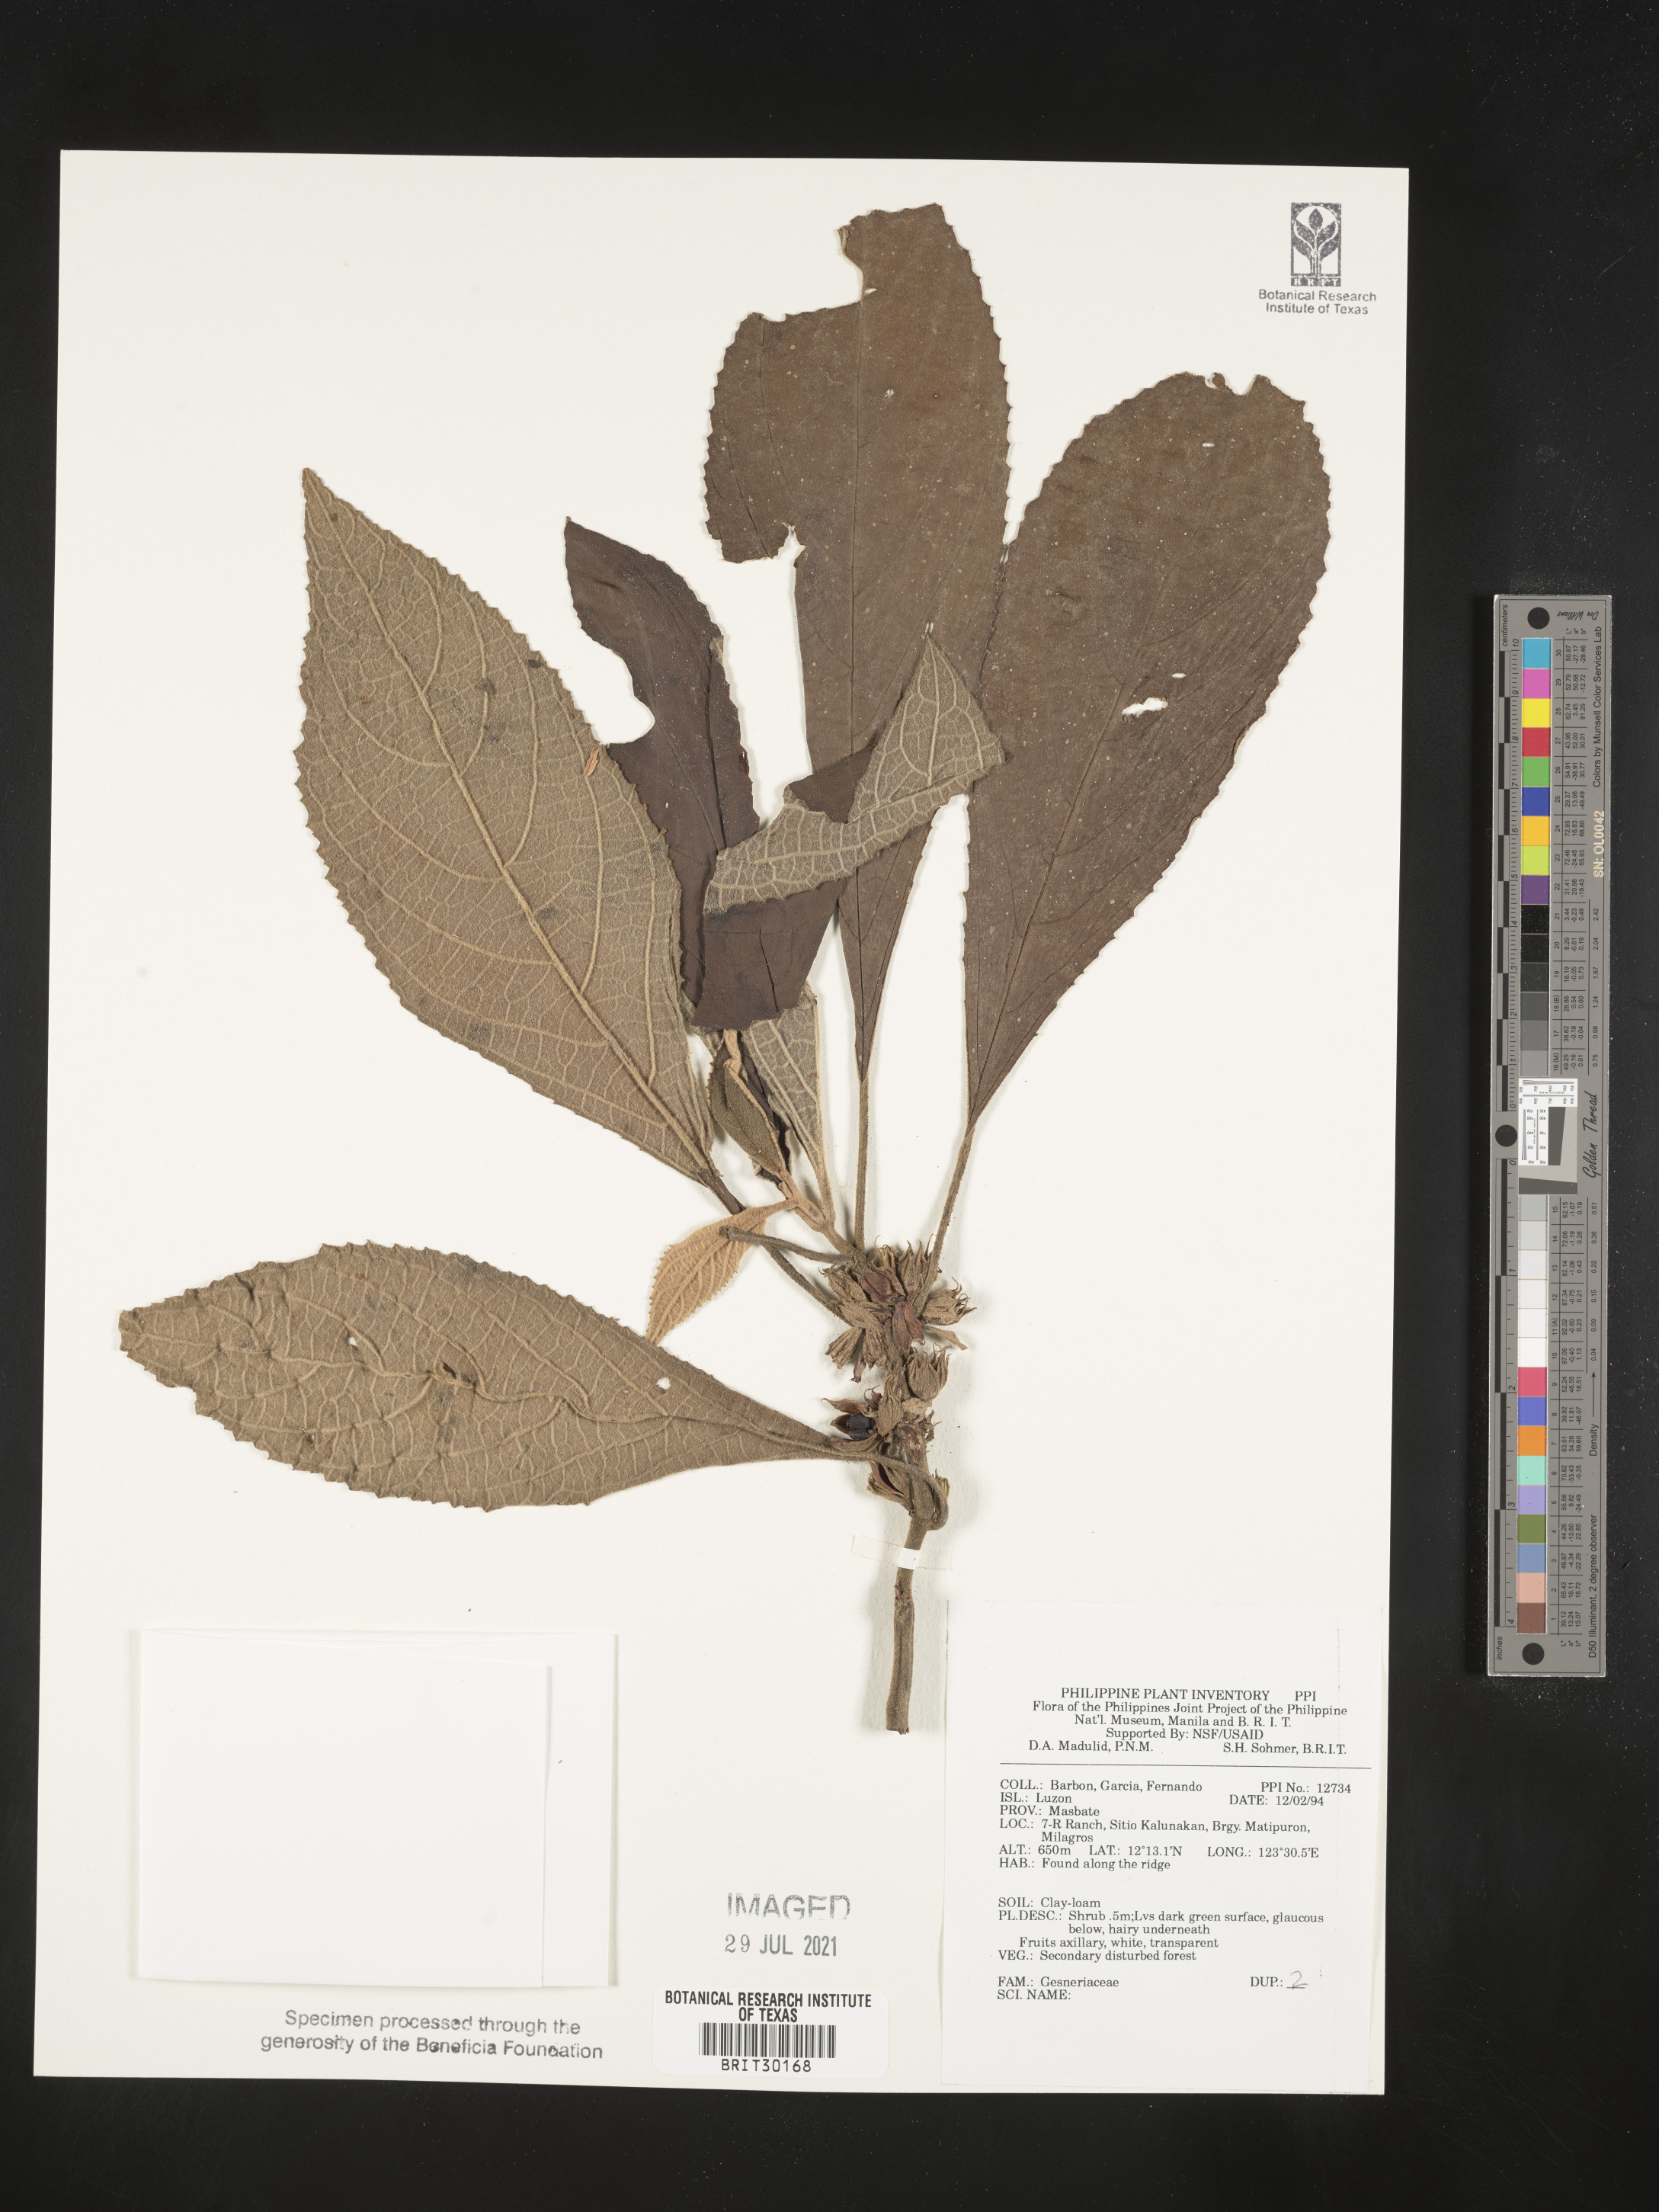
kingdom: Plantae
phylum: Tracheophyta
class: Magnoliopsida
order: Lamiales
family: Gesneriaceae
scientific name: Gesneriaceae
